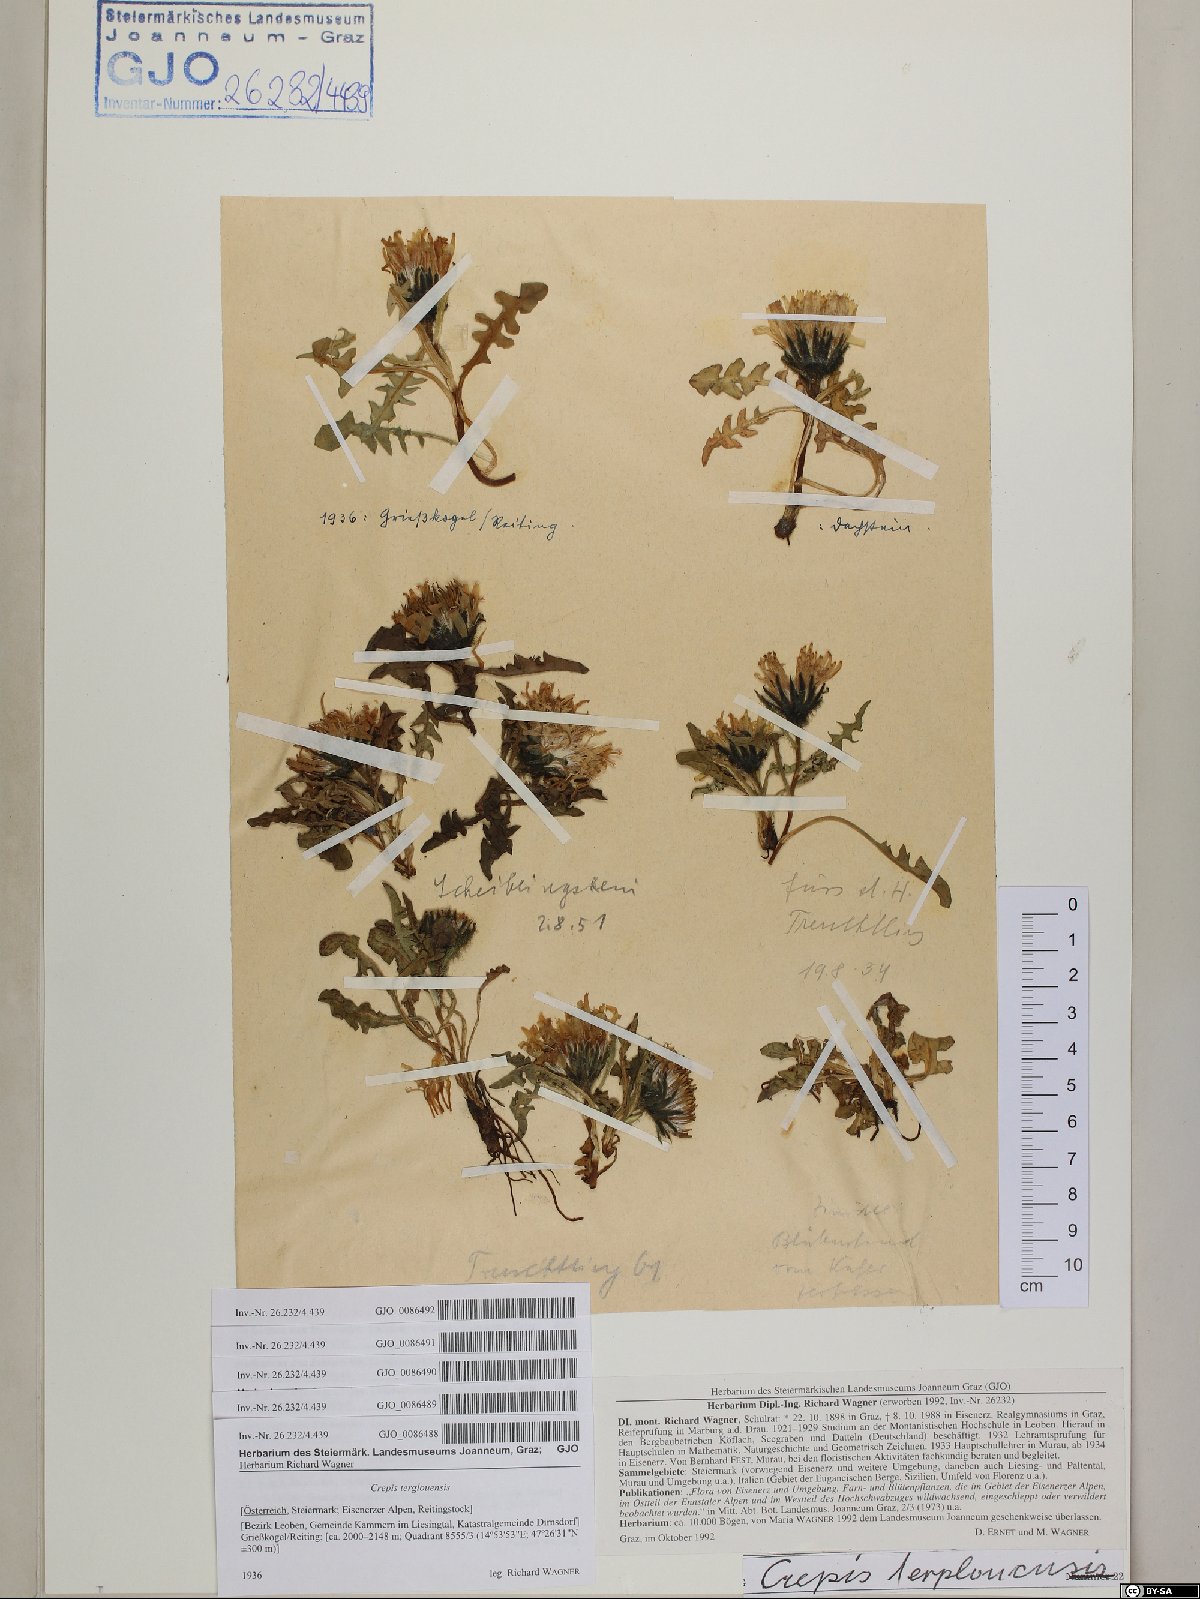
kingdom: Plantae
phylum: Tracheophyta
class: Magnoliopsida
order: Asterales
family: Asteraceae
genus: Crepis
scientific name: Crepis terglouensis
